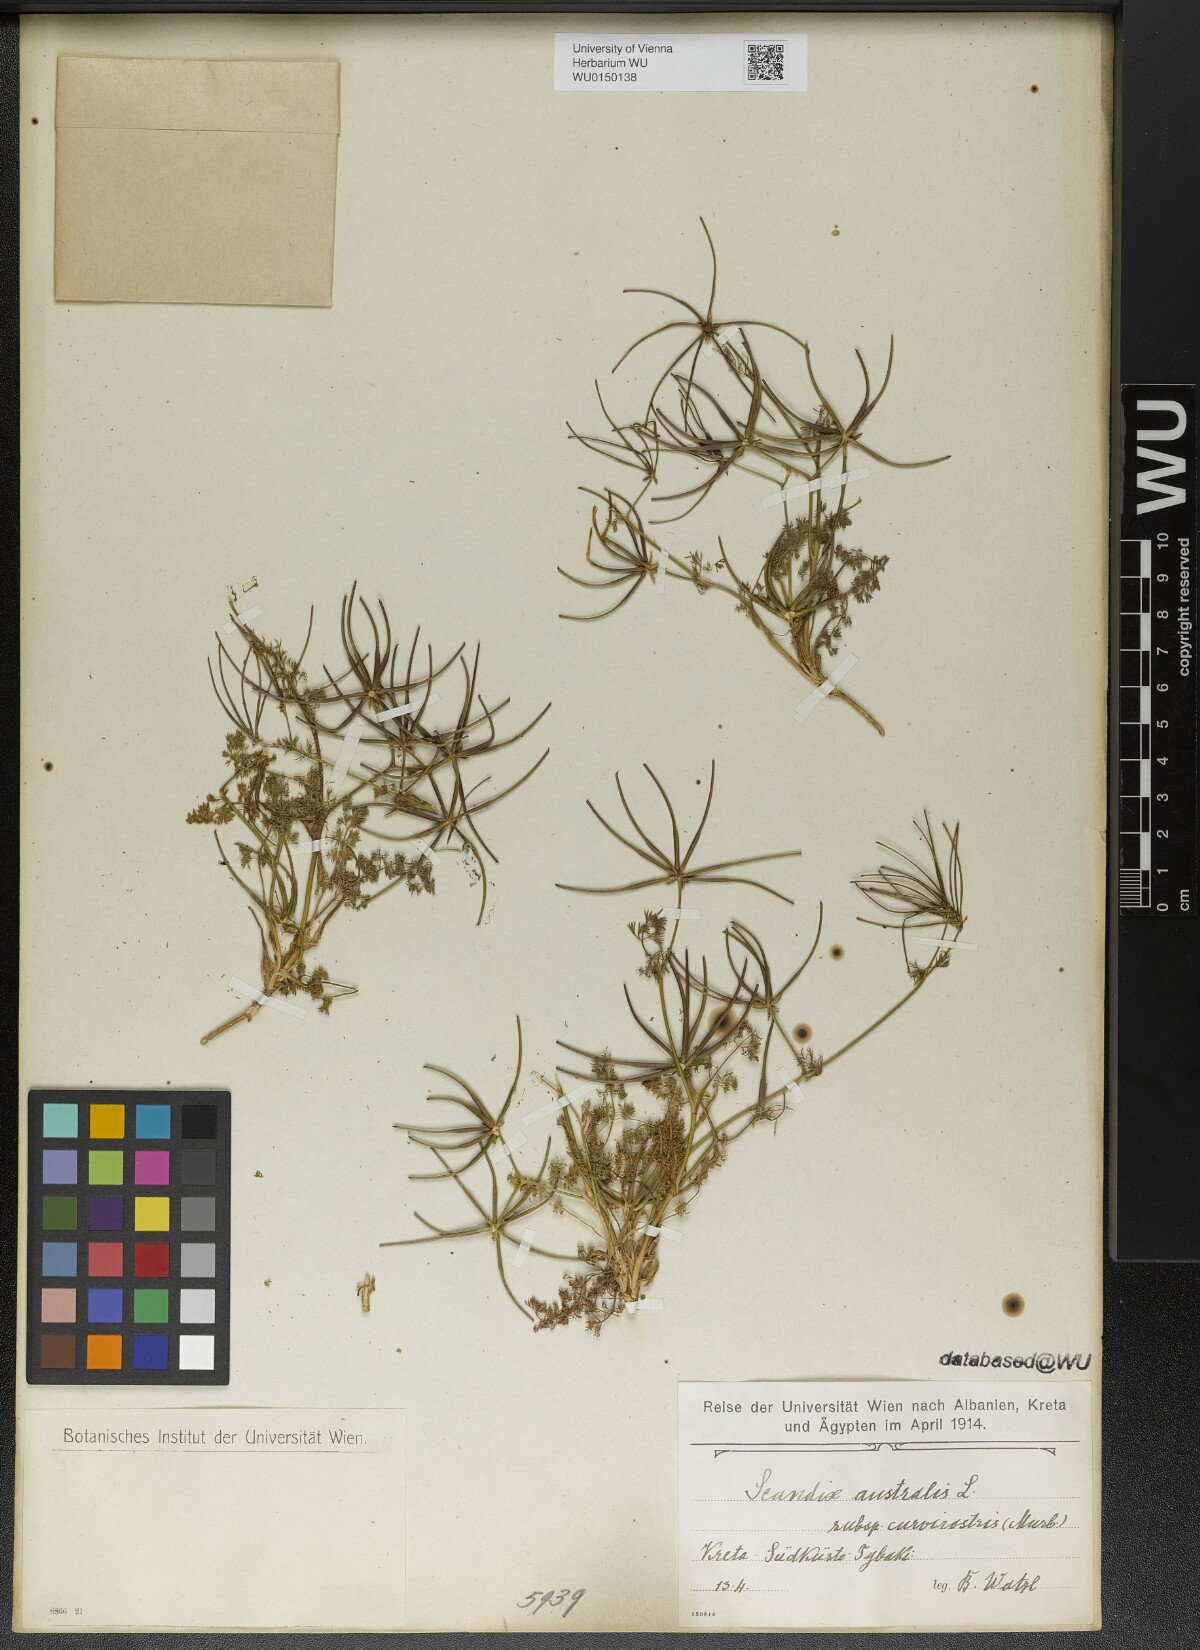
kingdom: Plantae
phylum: Tracheophyta
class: Magnoliopsida
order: Apiales
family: Apiaceae
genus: Scandix
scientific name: Scandix australis
